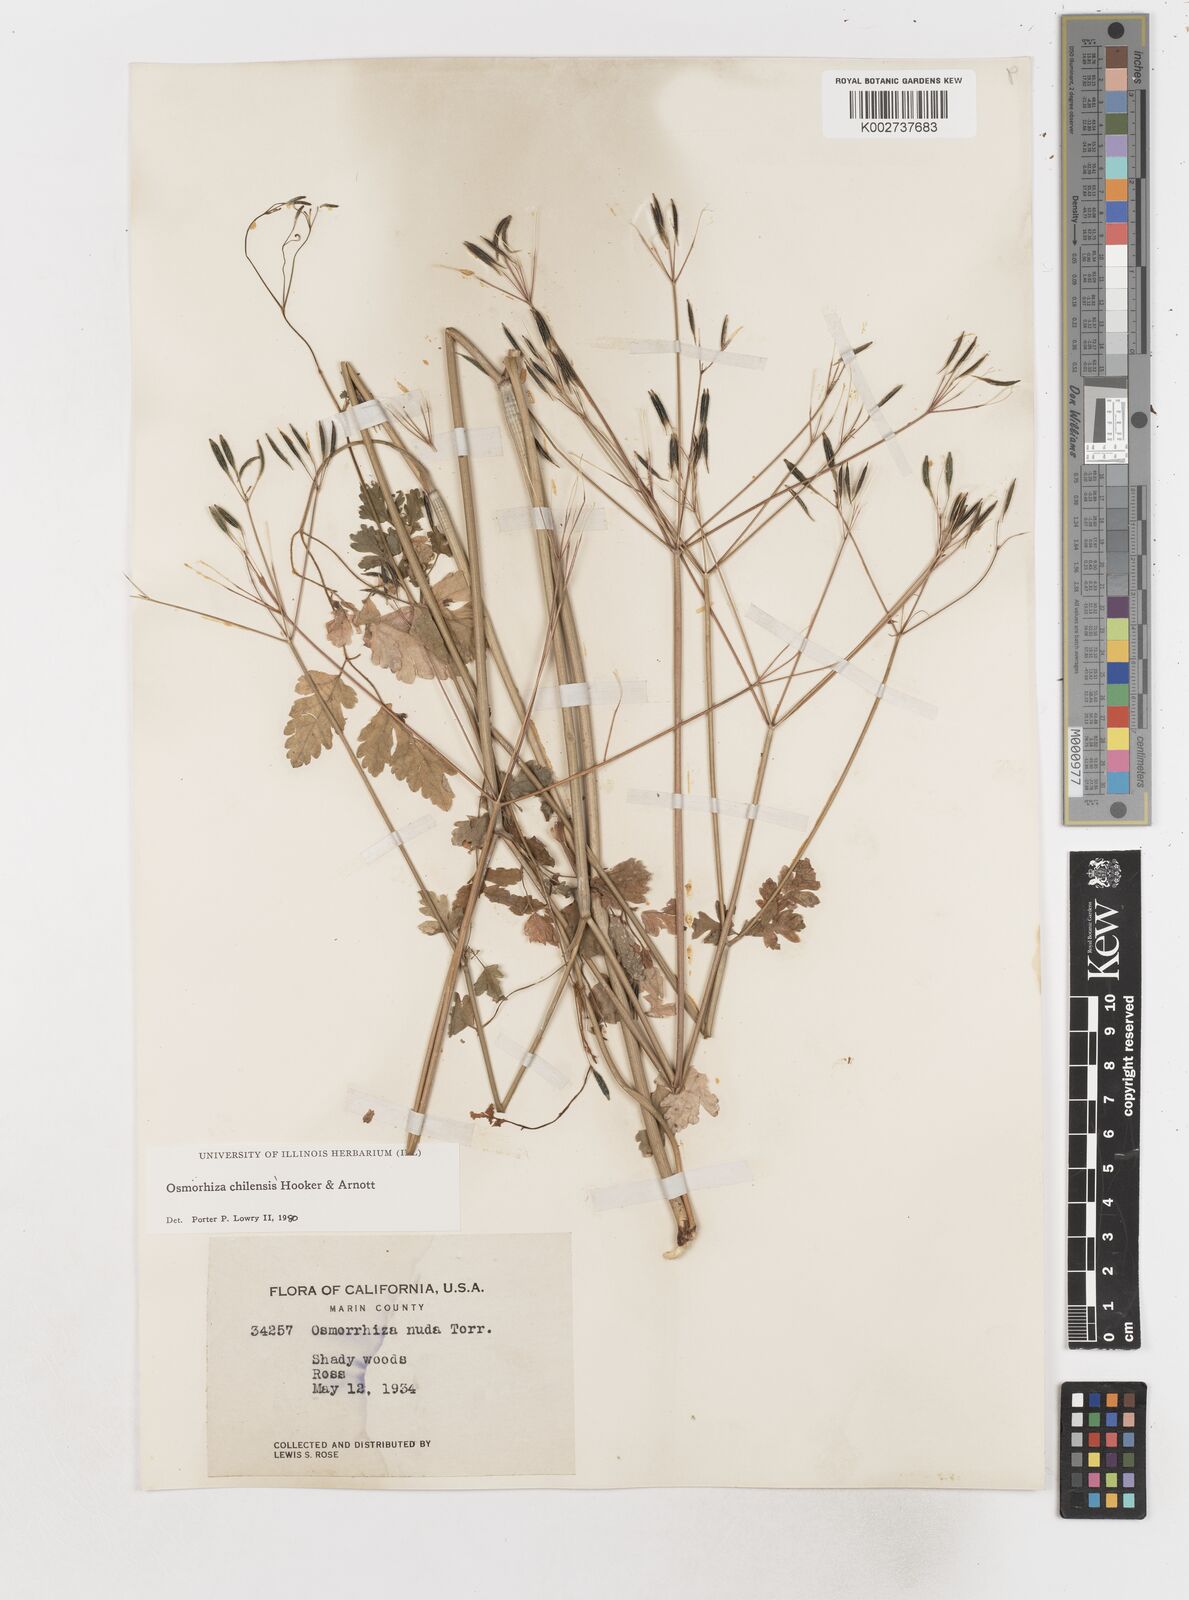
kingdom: Plantae
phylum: Tracheophyta
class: Magnoliopsida
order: Apiales
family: Apiaceae
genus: Osmorhiza
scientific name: Osmorhiza berteroi
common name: Mountain sweet cicely
